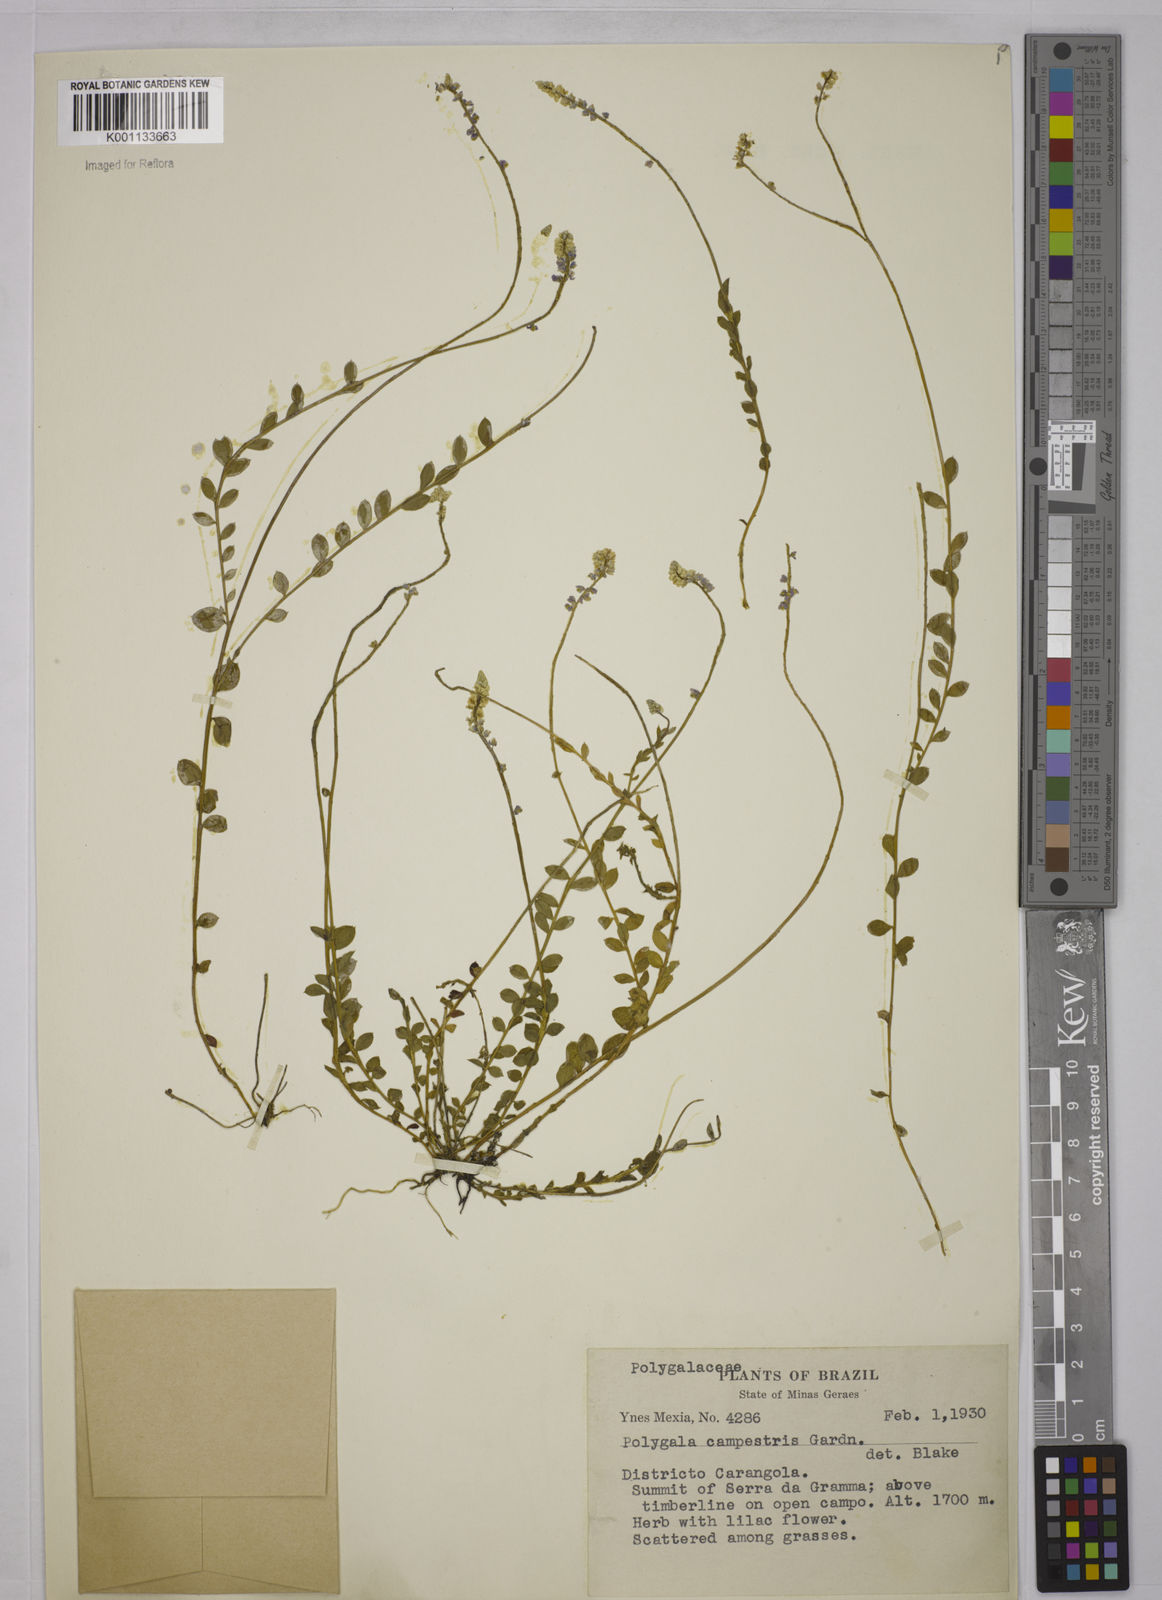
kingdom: Plantae
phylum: Tracheophyta
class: Magnoliopsida
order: Fabales
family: Polygalaceae
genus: Polygala
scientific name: Polygala campestris
